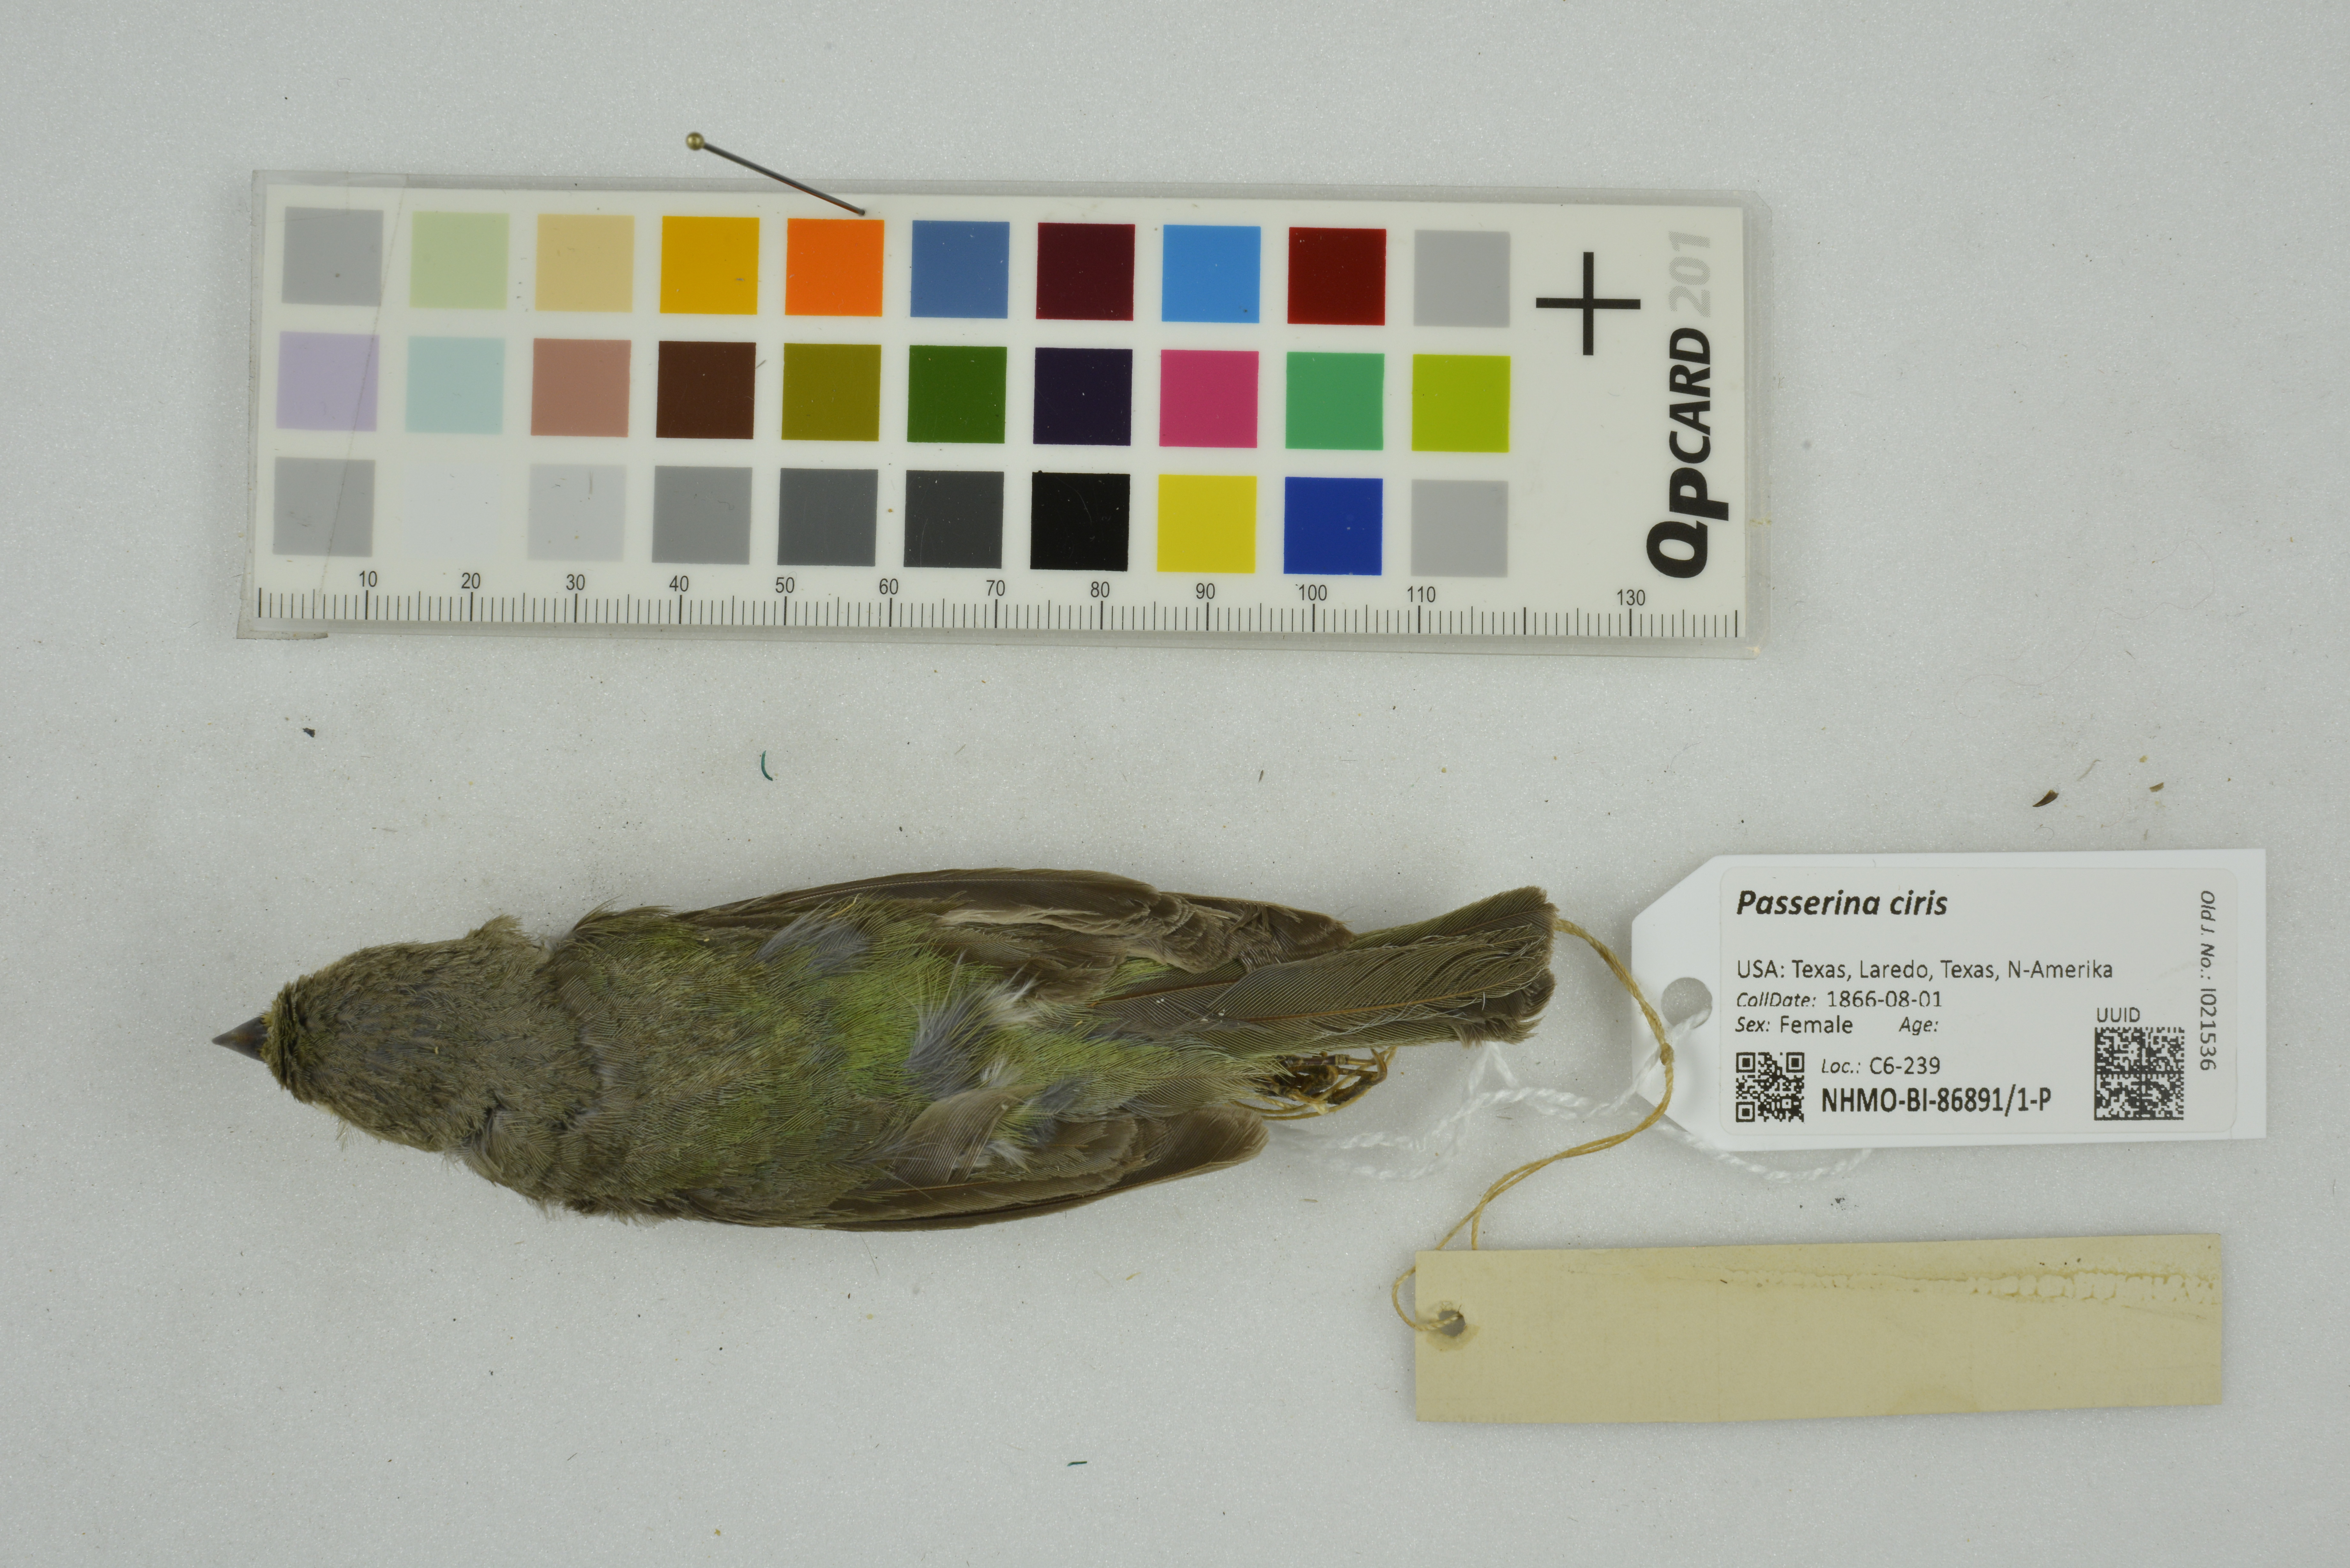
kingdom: Animalia
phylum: Chordata
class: Aves
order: Passeriformes
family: Cardinalidae
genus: Passerina
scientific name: Passerina ciris
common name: Painted bunting
